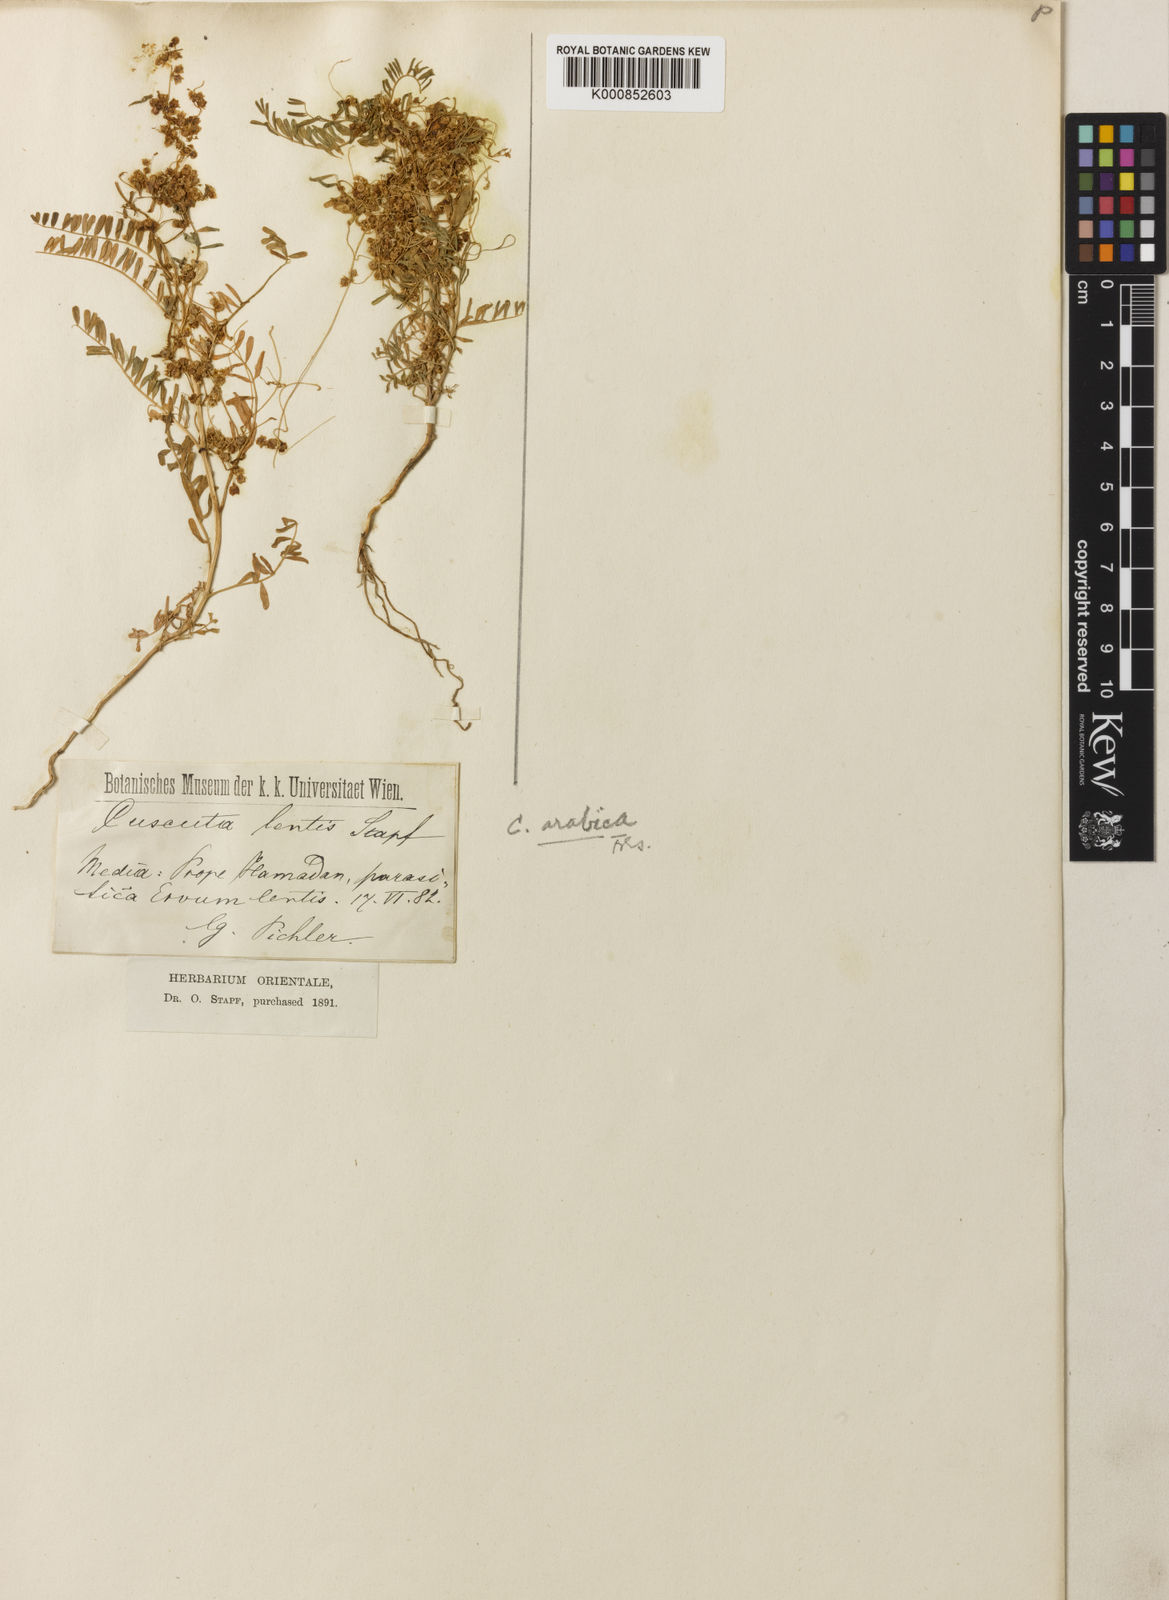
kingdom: Plantae
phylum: Tracheophyta
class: Magnoliopsida
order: Solanales
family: Convolvulaceae
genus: Cuscuta
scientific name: Cuscuta pedicellata
